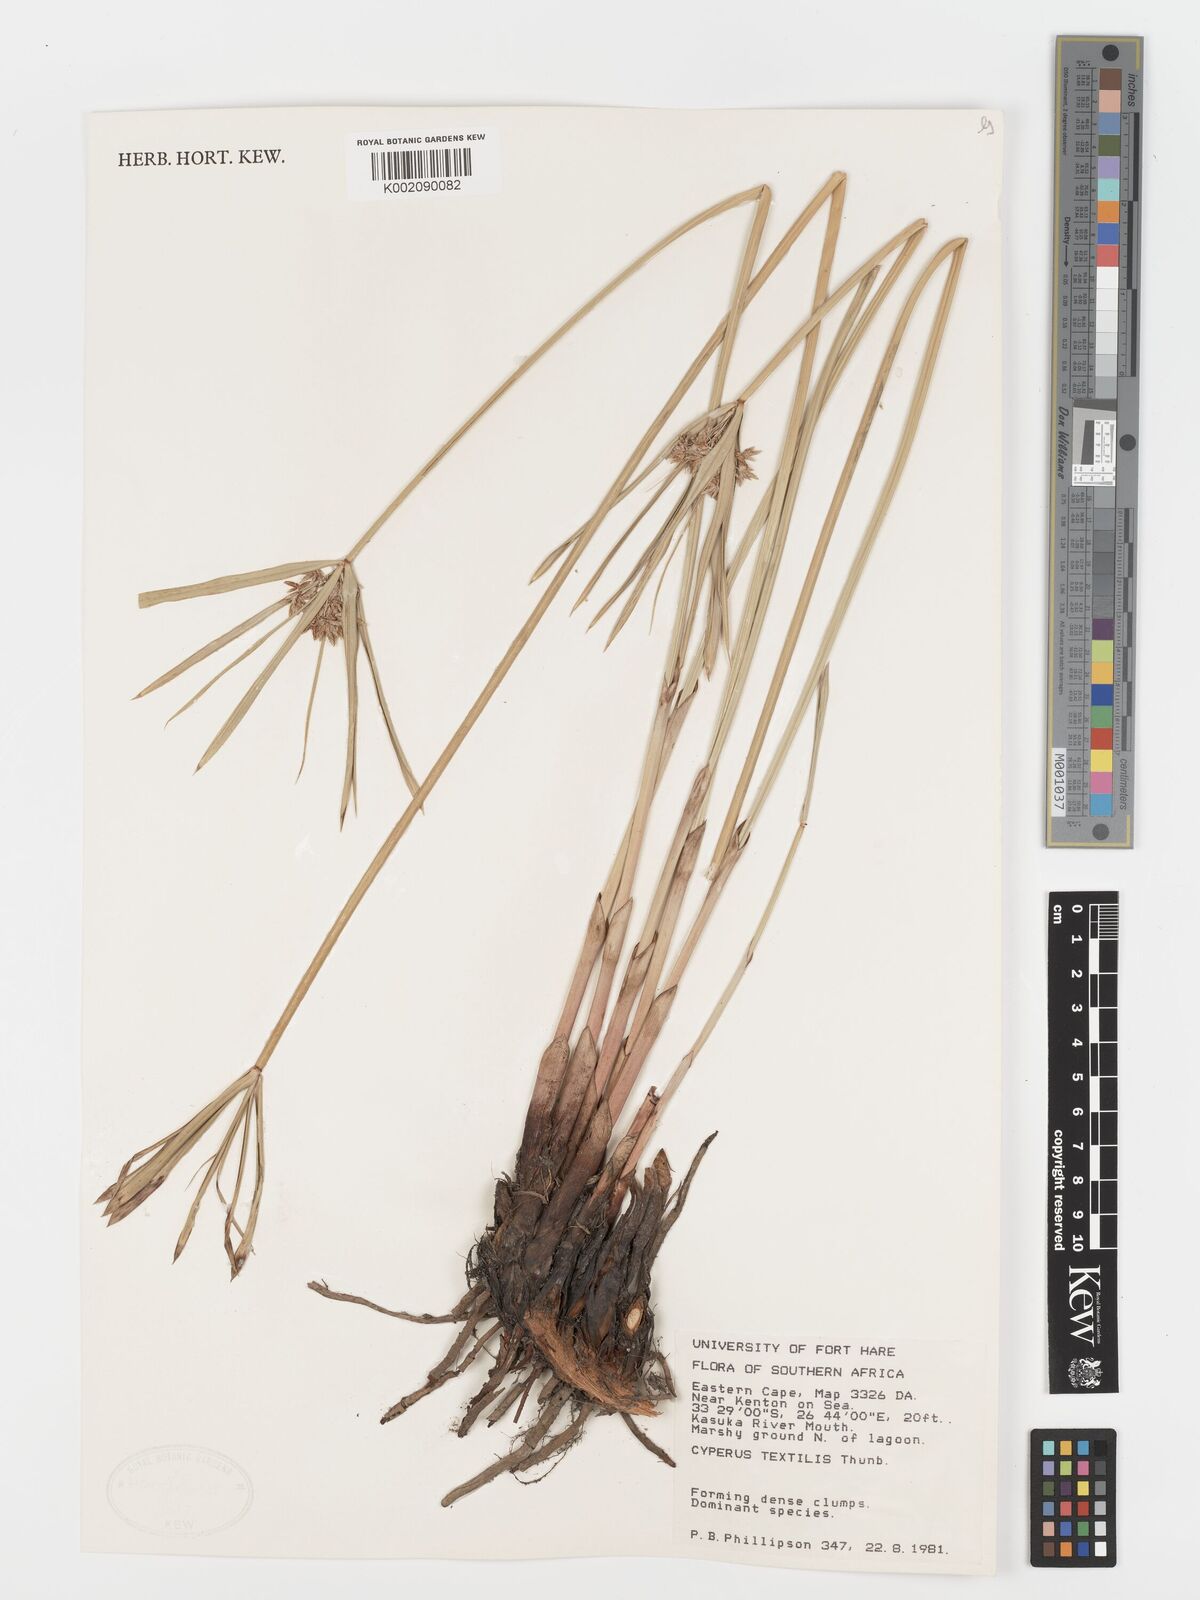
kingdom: Plantae
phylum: Tracheophyta
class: Liliopsida
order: Poales
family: Cyperaceae
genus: Cyperus
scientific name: Cyperus alternifolius
